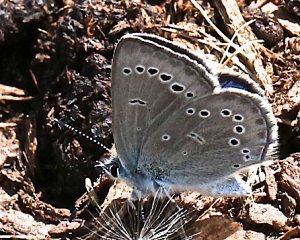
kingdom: Animalia
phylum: Arthropoda
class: Insecta
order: Lepidoptera
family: Lycaenidae
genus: Glaucopsyche
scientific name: Glaucopsyche lygdamus
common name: Silvery Blue
